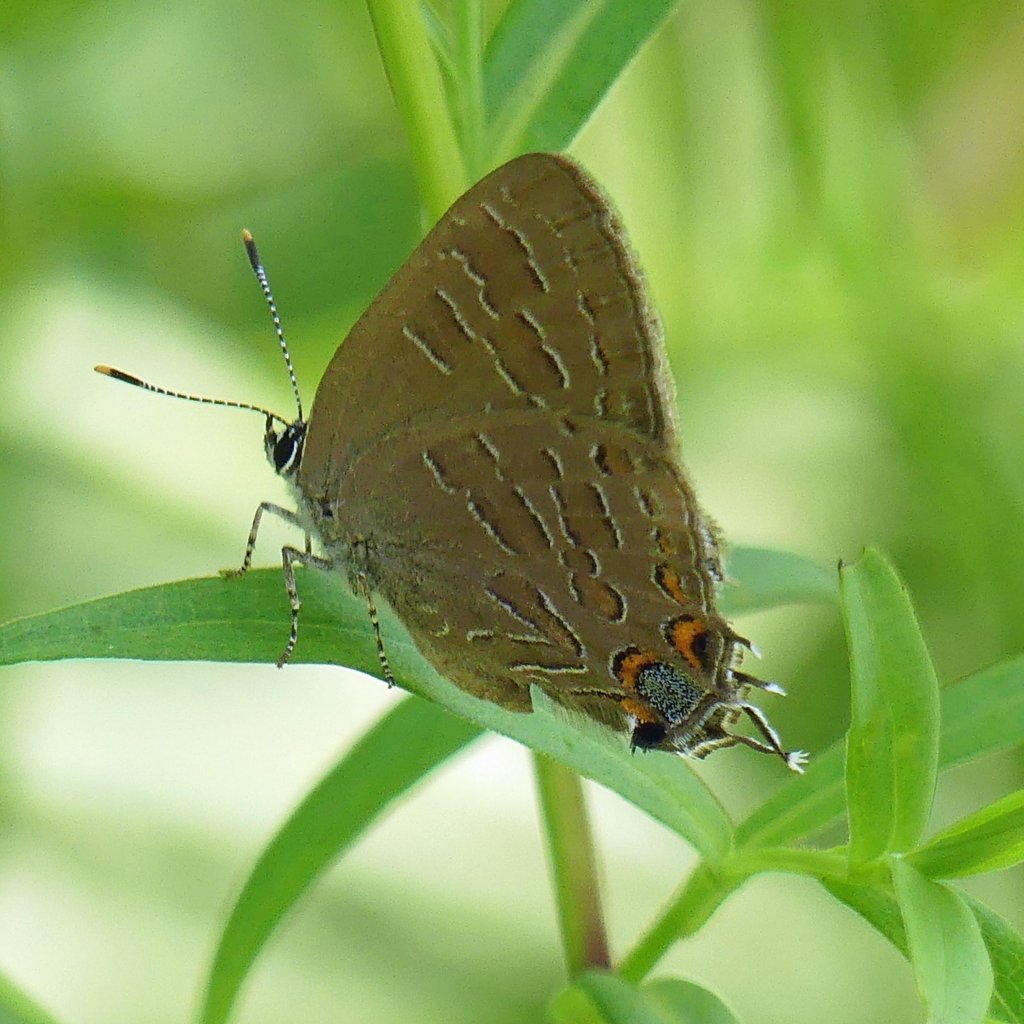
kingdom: Animalia
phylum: Arthropoda
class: Insecta
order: Lepidoptera
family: Lycaenidae
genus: Satyrium
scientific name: Satyrium liparops
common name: Striped Hairstreak
